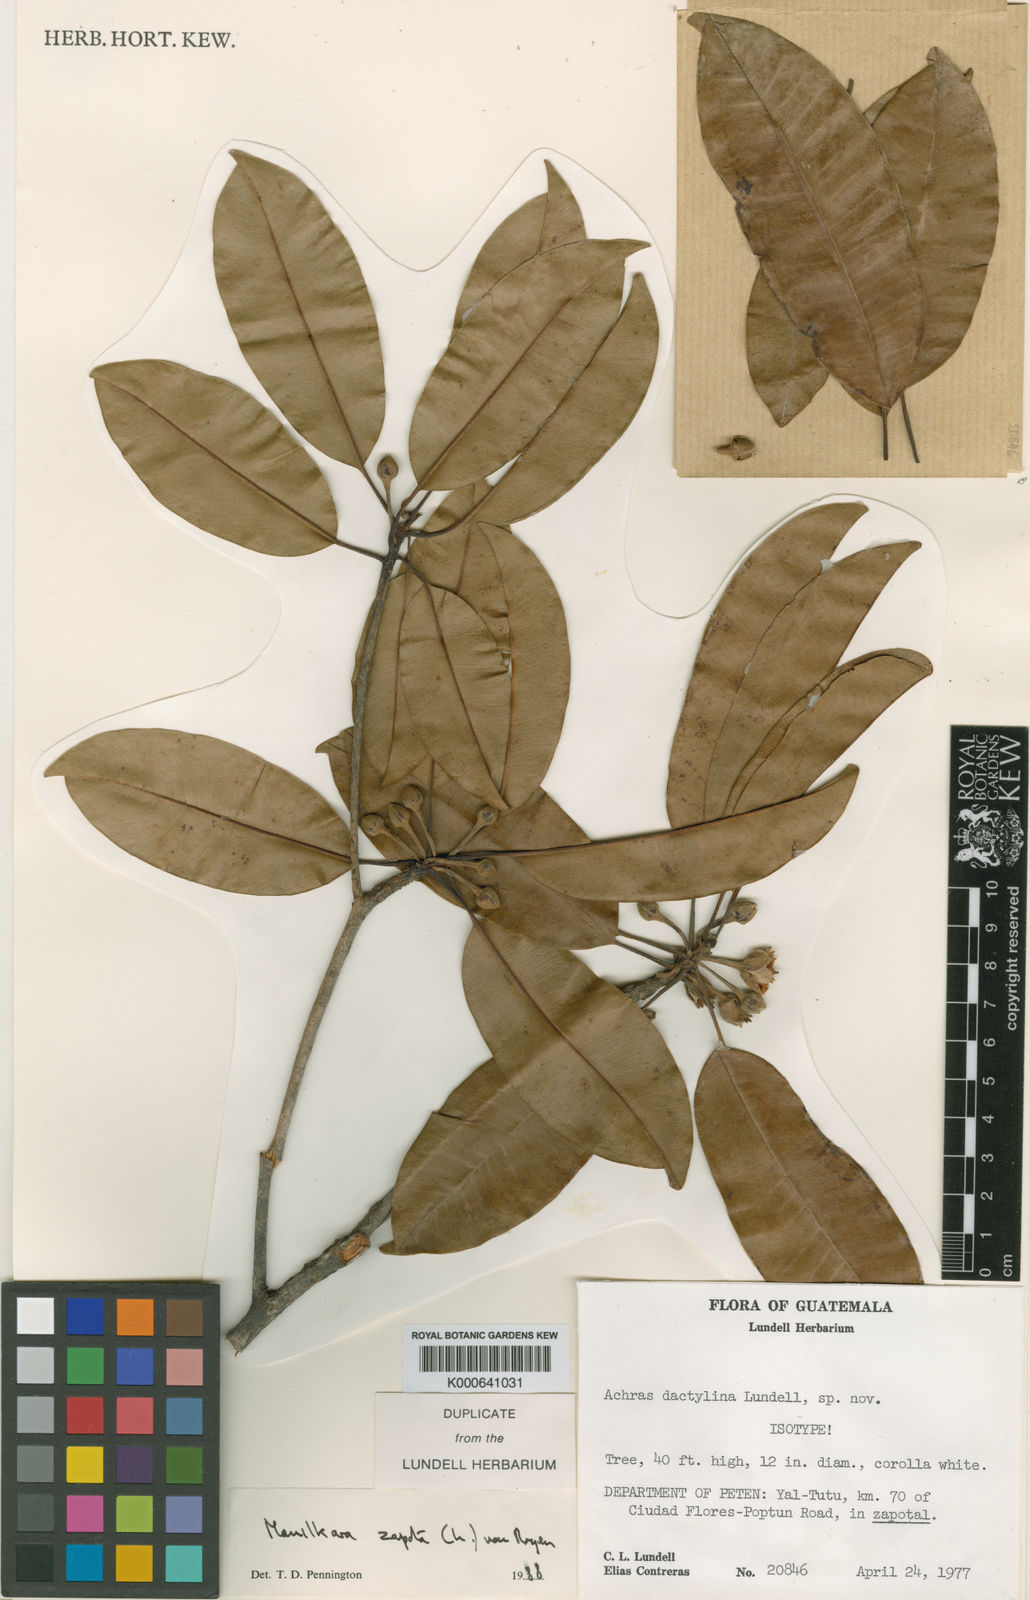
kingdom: Plantae
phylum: Tracheophyta
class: Magnoliopsida
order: Ericales
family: Sapotaceae
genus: Manilkara
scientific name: Manilkara staminodella
